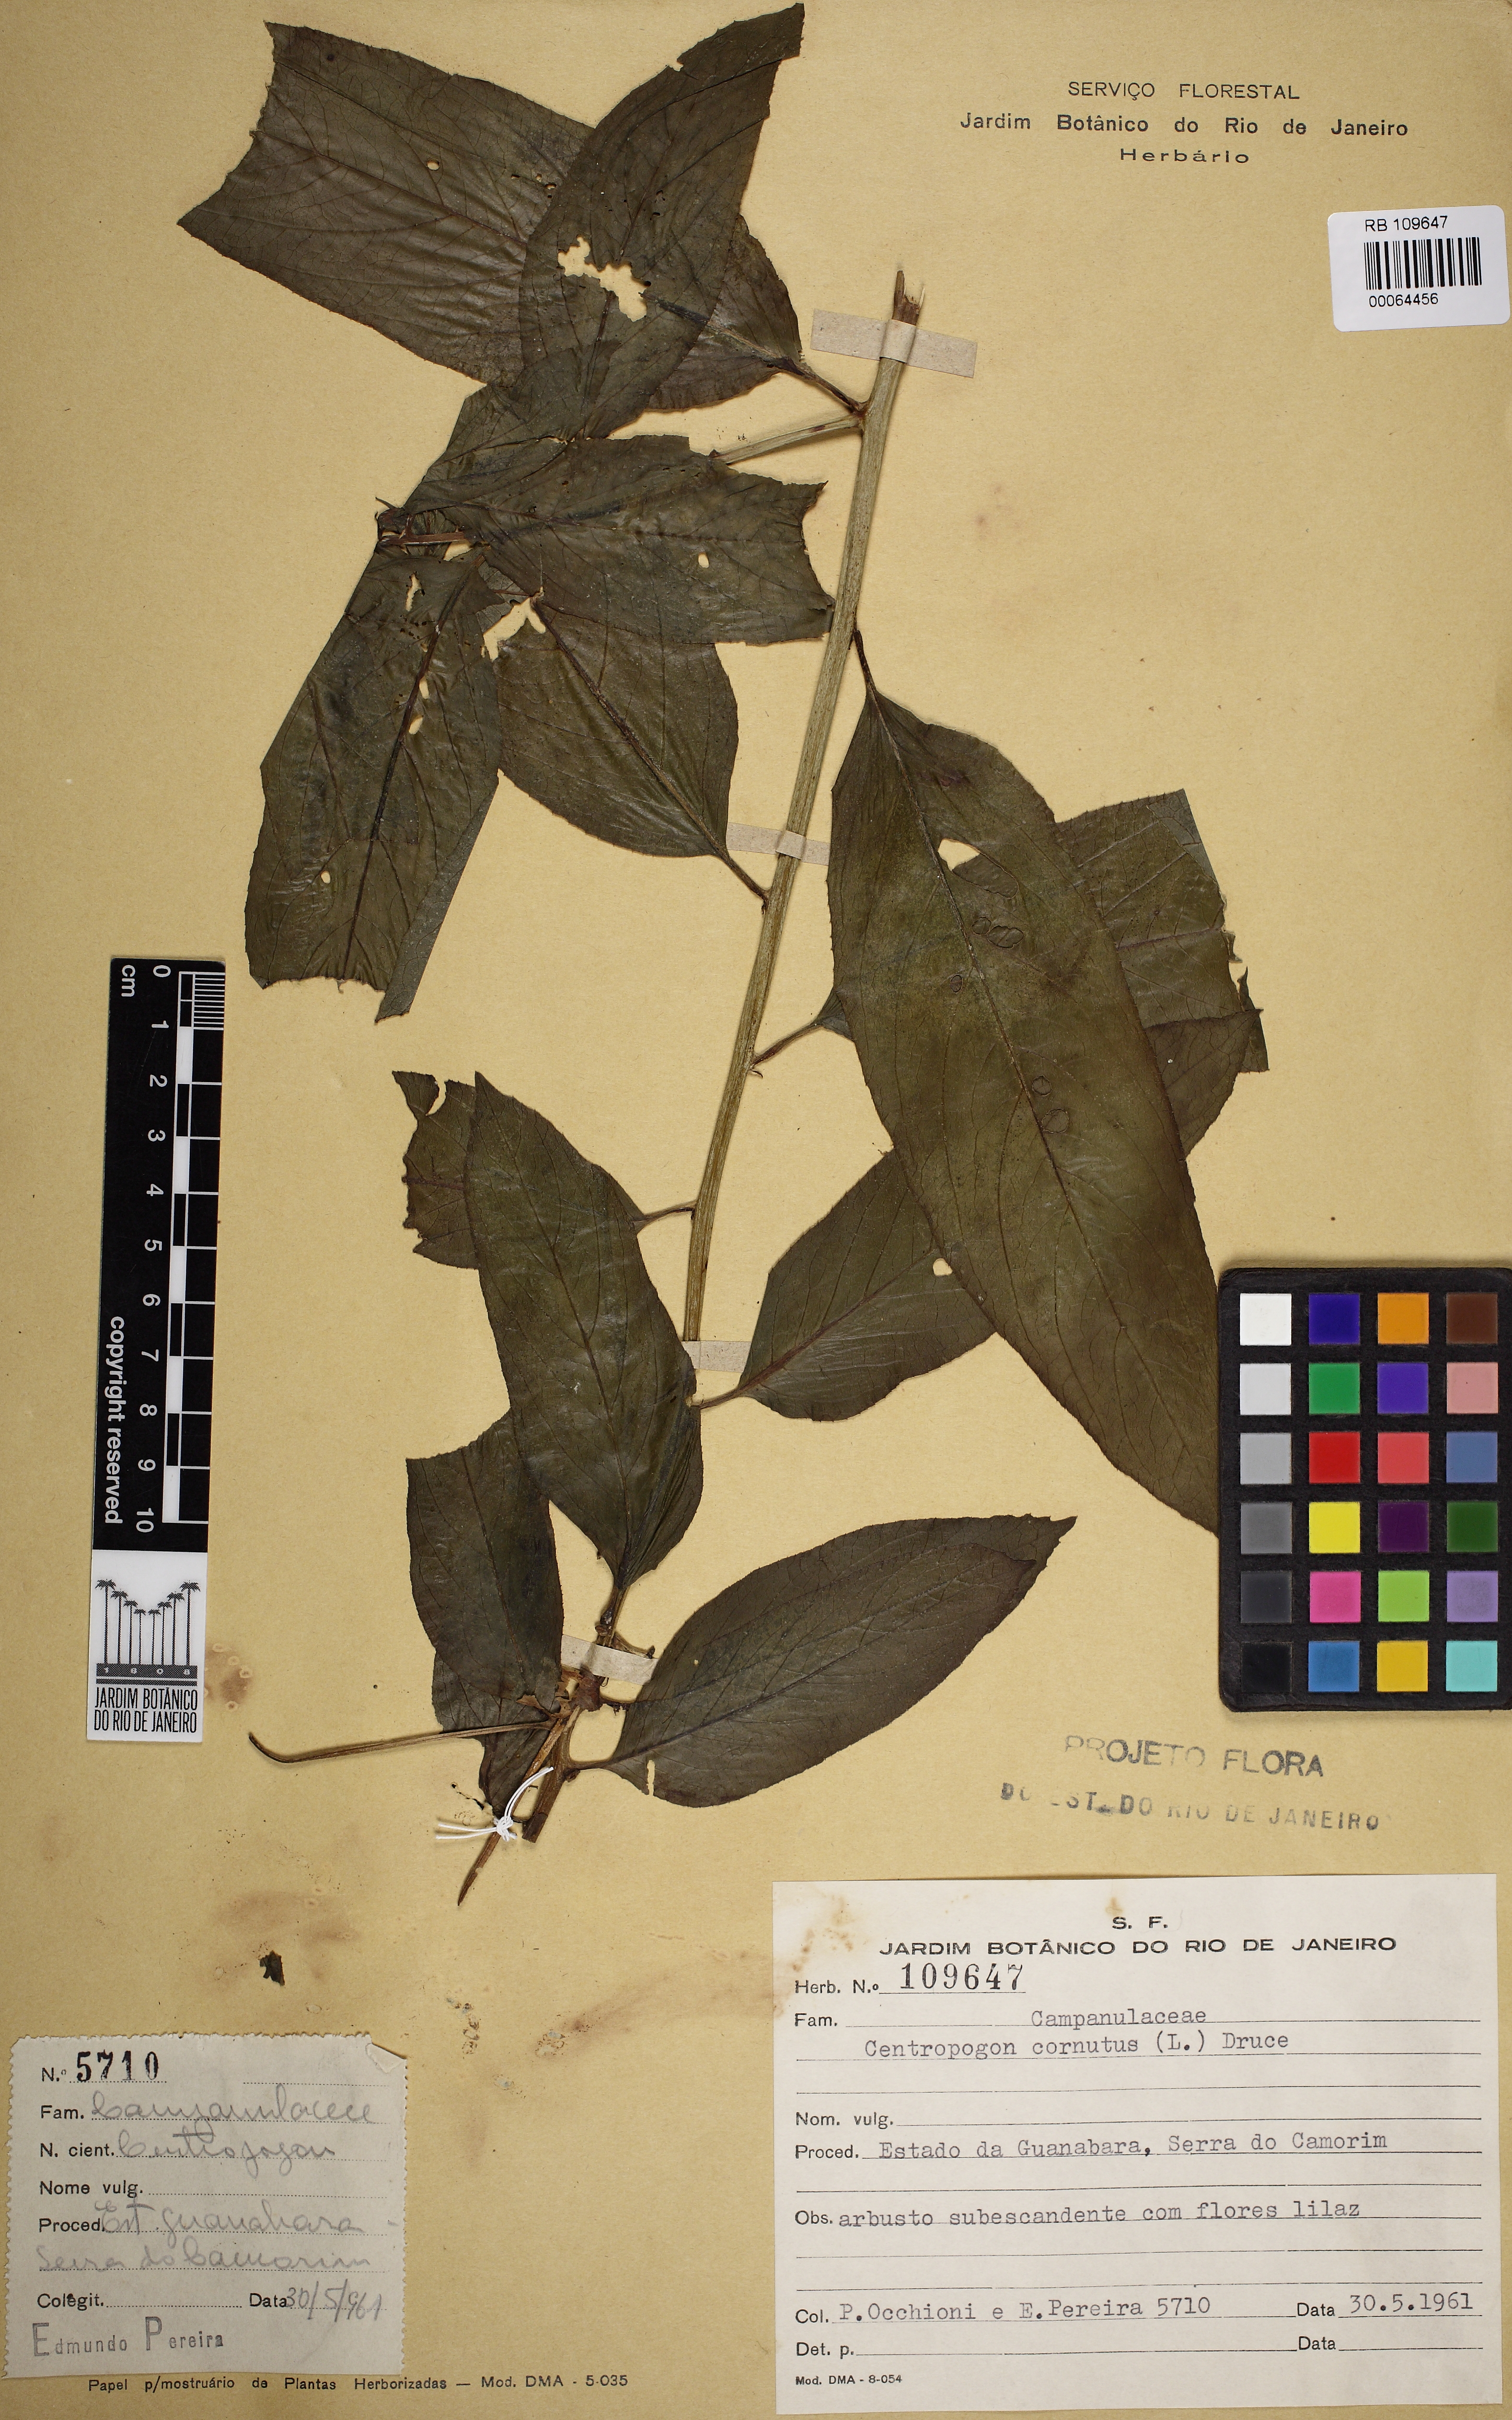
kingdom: Plantae
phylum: Tracheophyta
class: Magnoliopsida
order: Asterales
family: Campanulaceae
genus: Centropogon
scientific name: Centropogon cornutus
